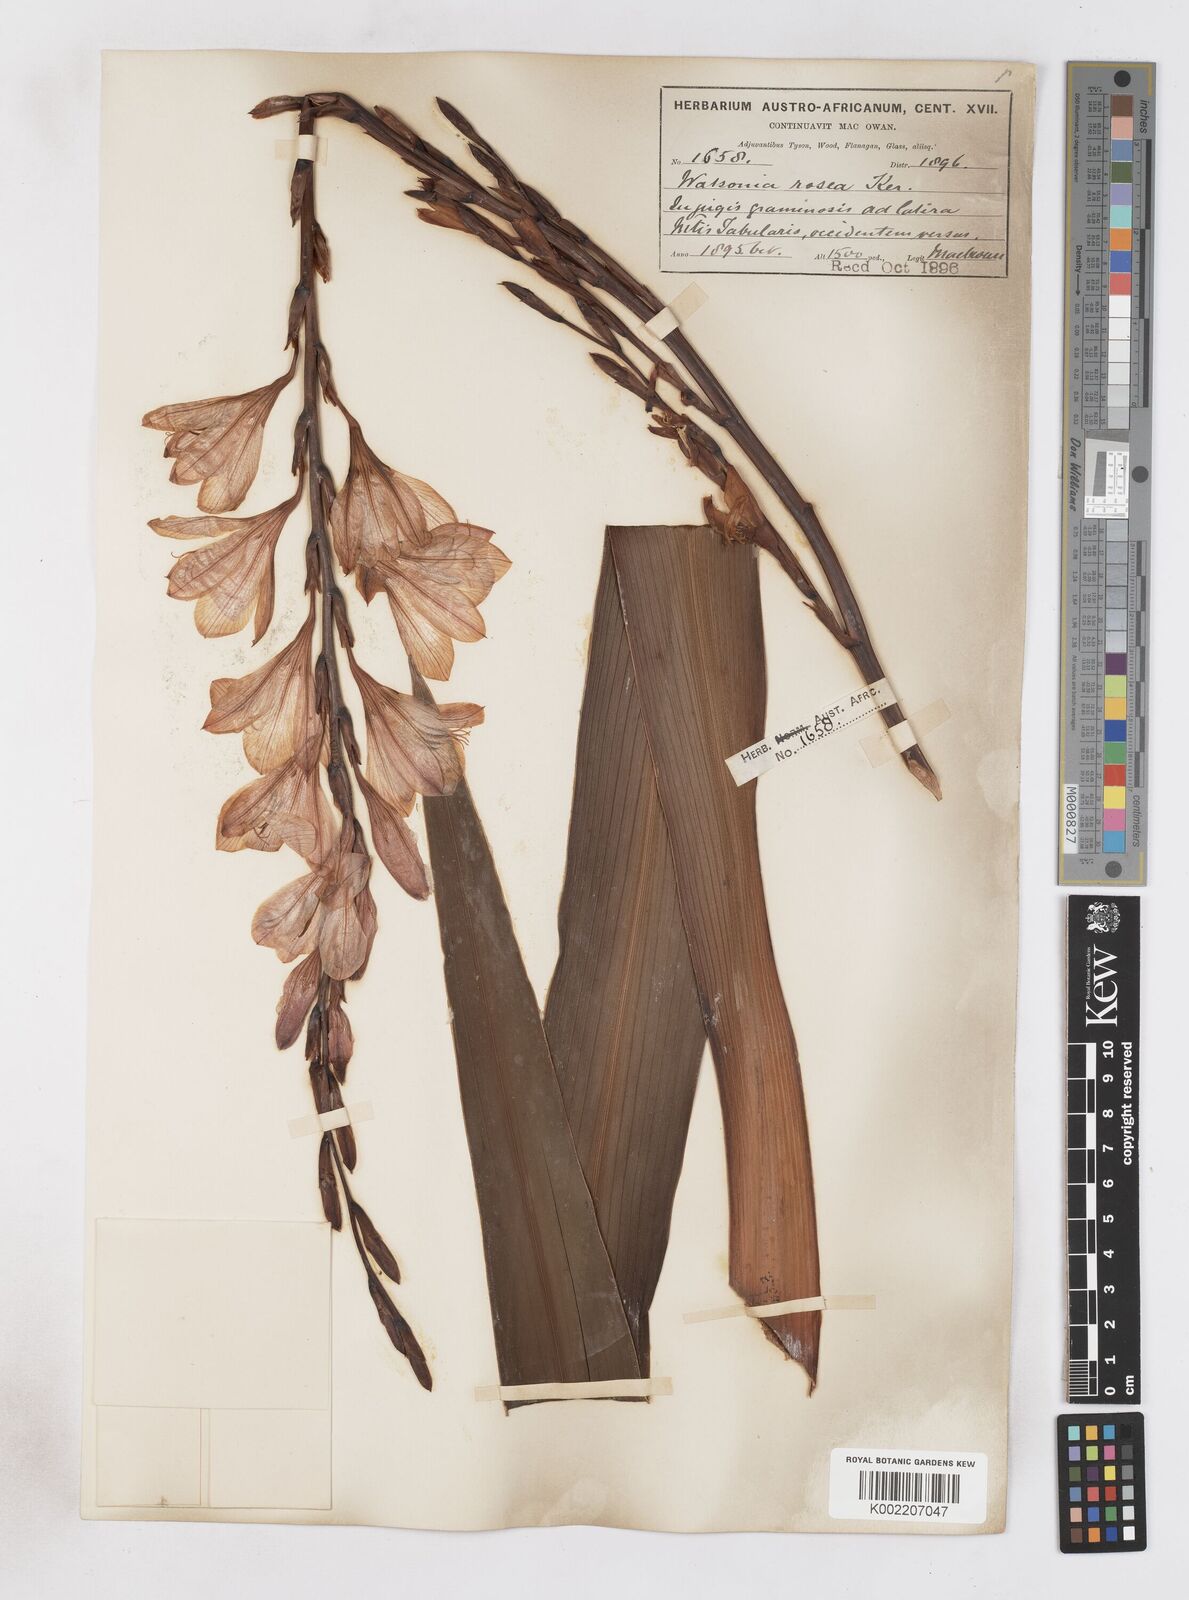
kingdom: Plantae
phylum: Tracheophyta
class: Liliopsida
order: Asparagales
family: Iridaceae
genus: Watsonia
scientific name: Watsonia borbonica
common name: Bugle-lily
